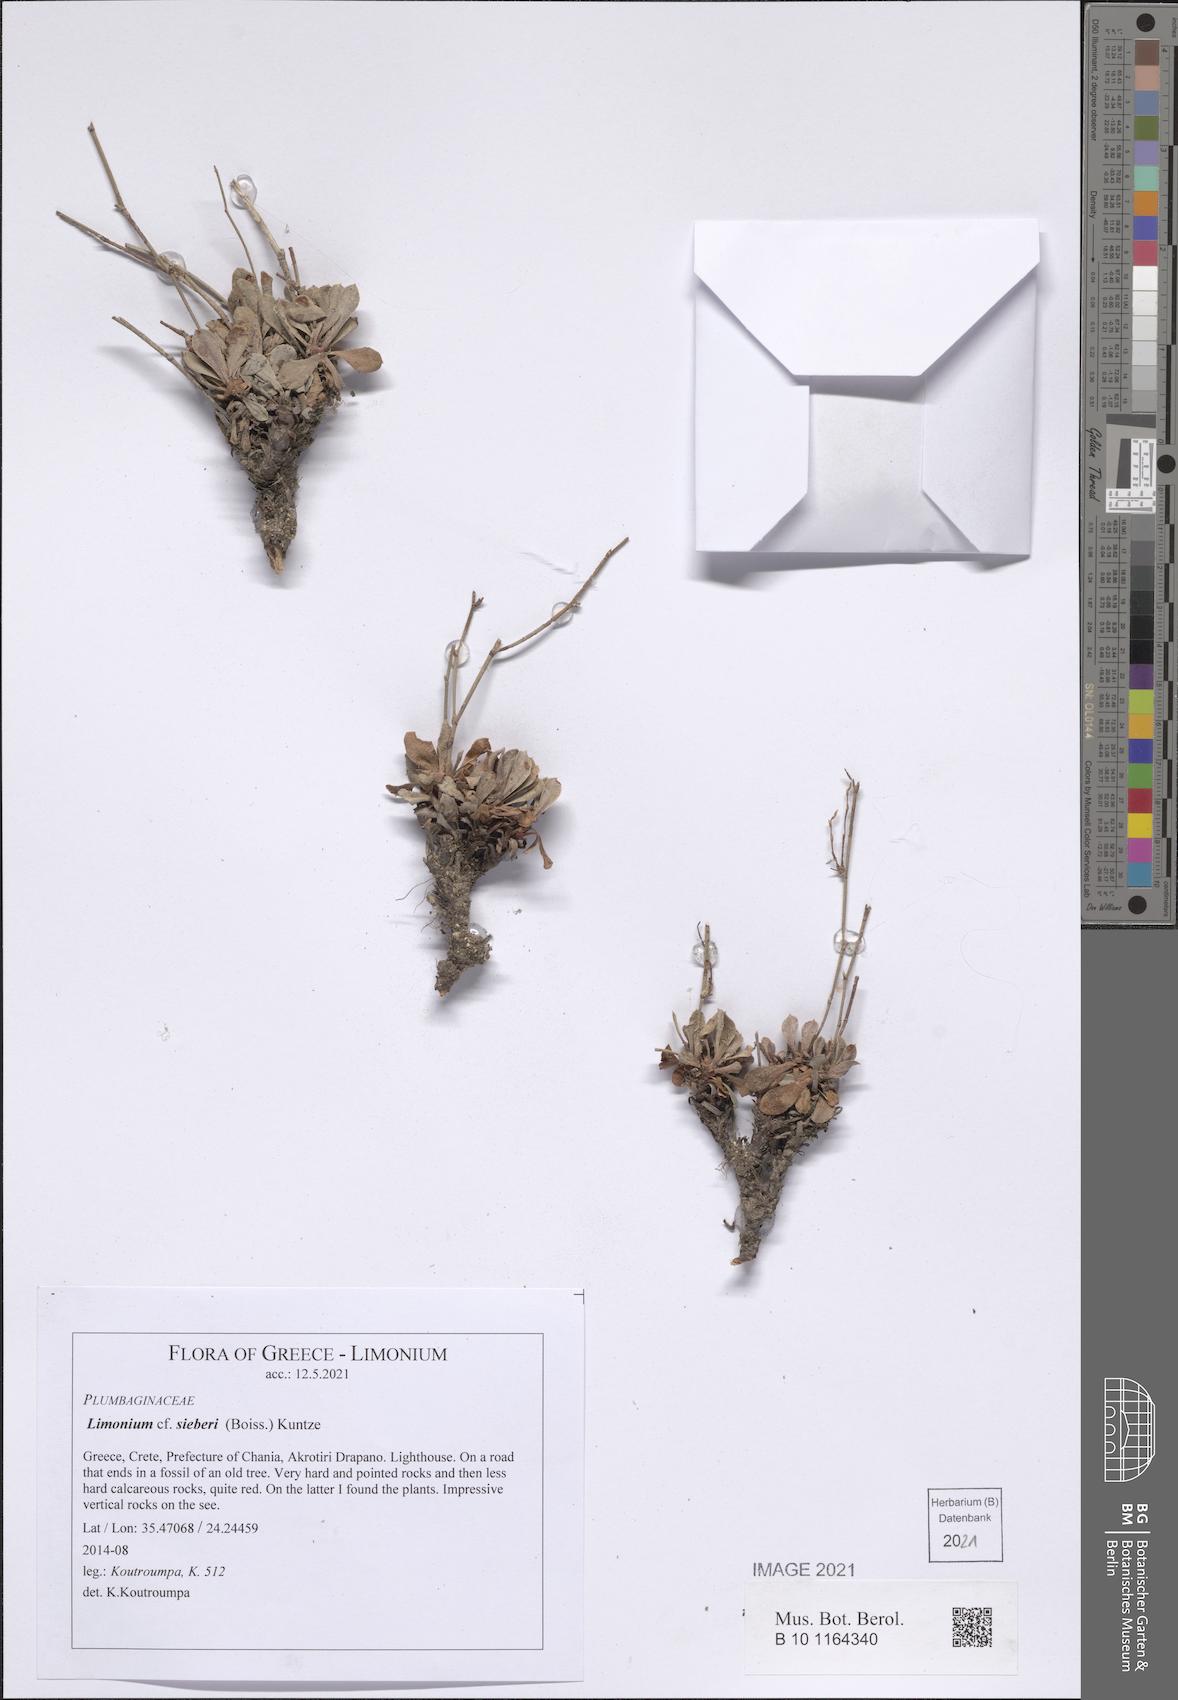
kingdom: Plantae
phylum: Tracheophyta
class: Magnoliopsida
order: Caryophyllales
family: Plumbaginaceae
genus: Limonium
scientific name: Limonium sieberi
